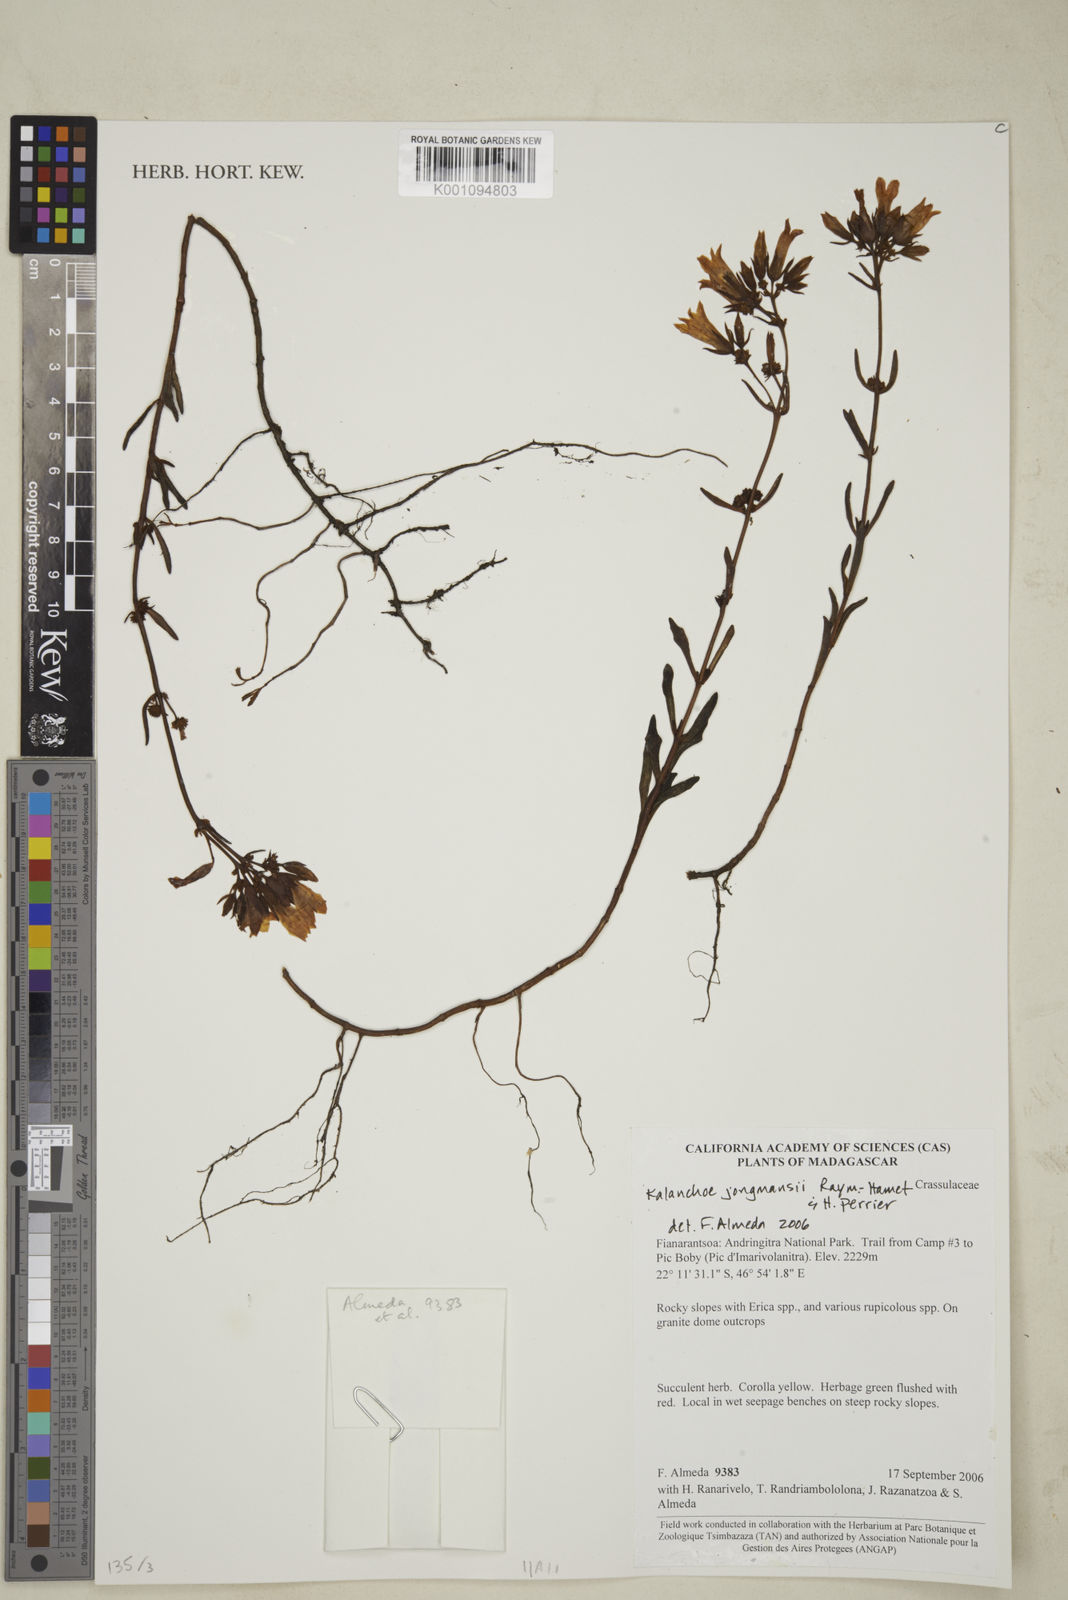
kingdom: Plantae
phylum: Tracheophyta
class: Magnoliopsida
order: Saxifragales
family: Crassulaceae
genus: Kalanchoe
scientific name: Kalanchoe jongmansii
